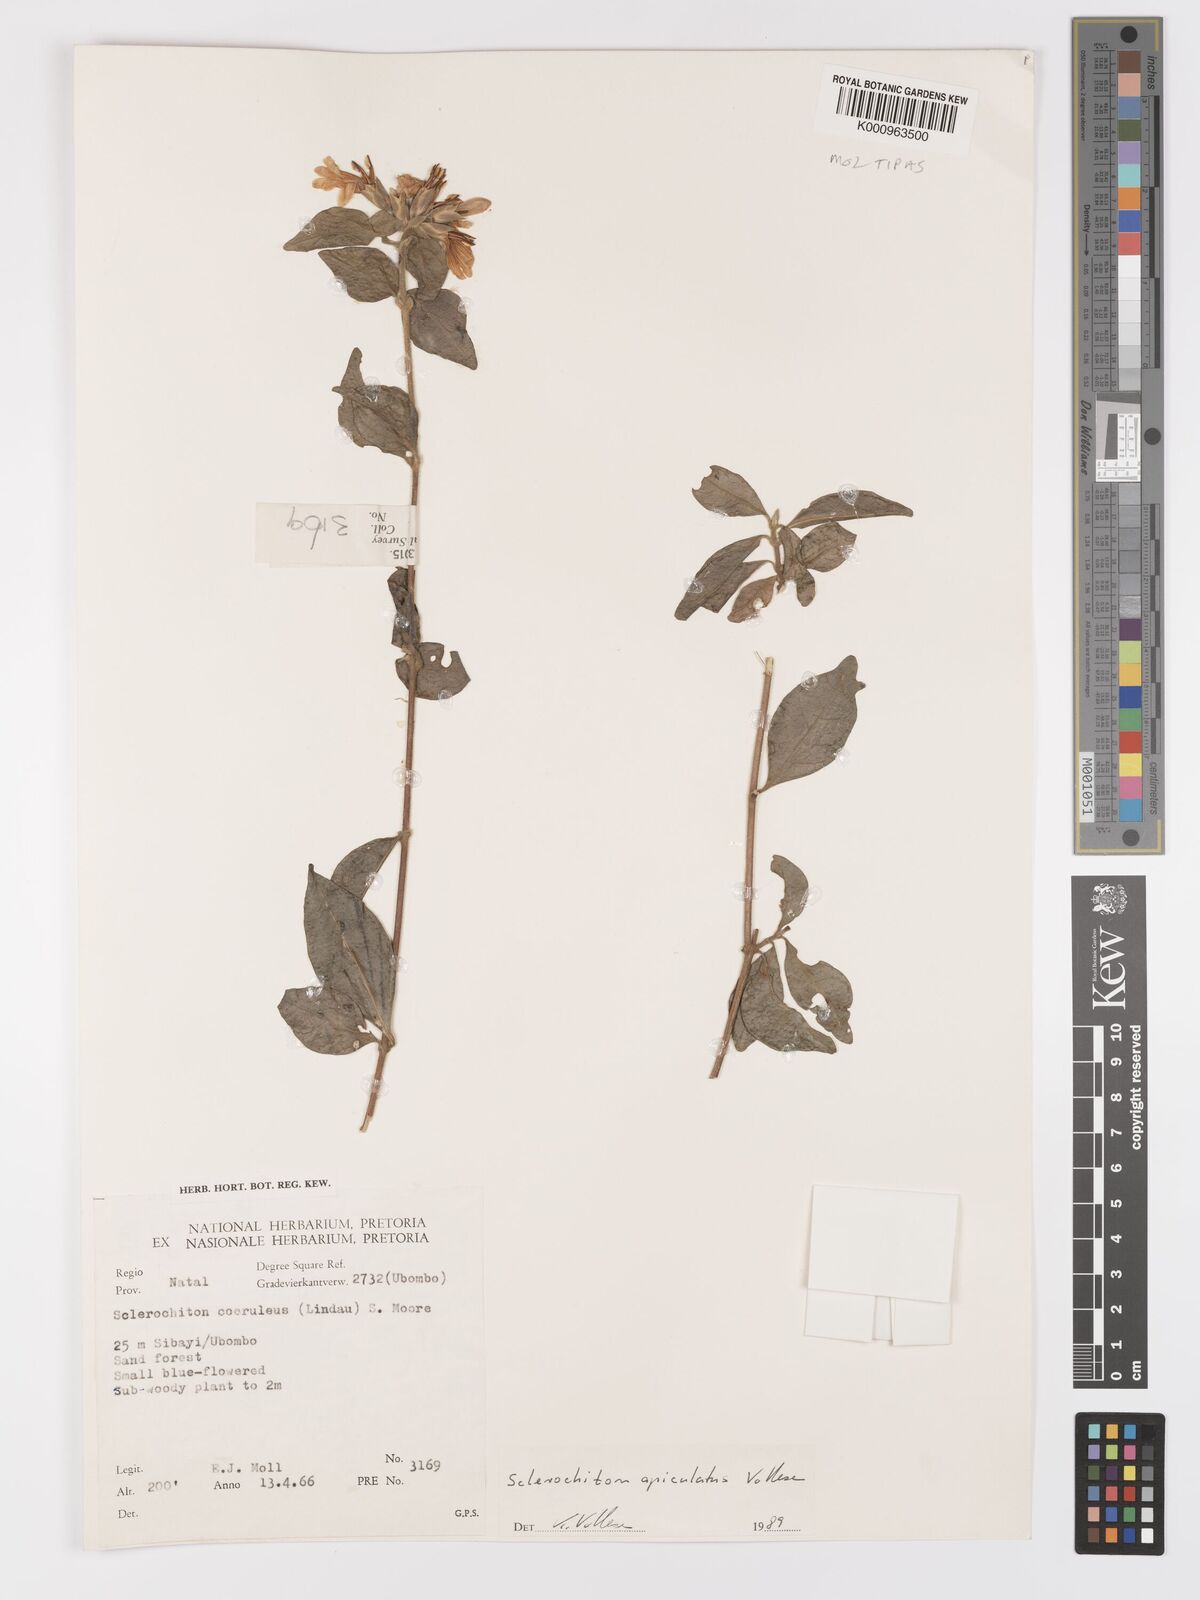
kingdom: Plantae
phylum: Tracheophyta
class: Magnoliopsida
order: Lamiales
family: Acanthaceae
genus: Sclerochiton
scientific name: Sclerochiton apiculatus
